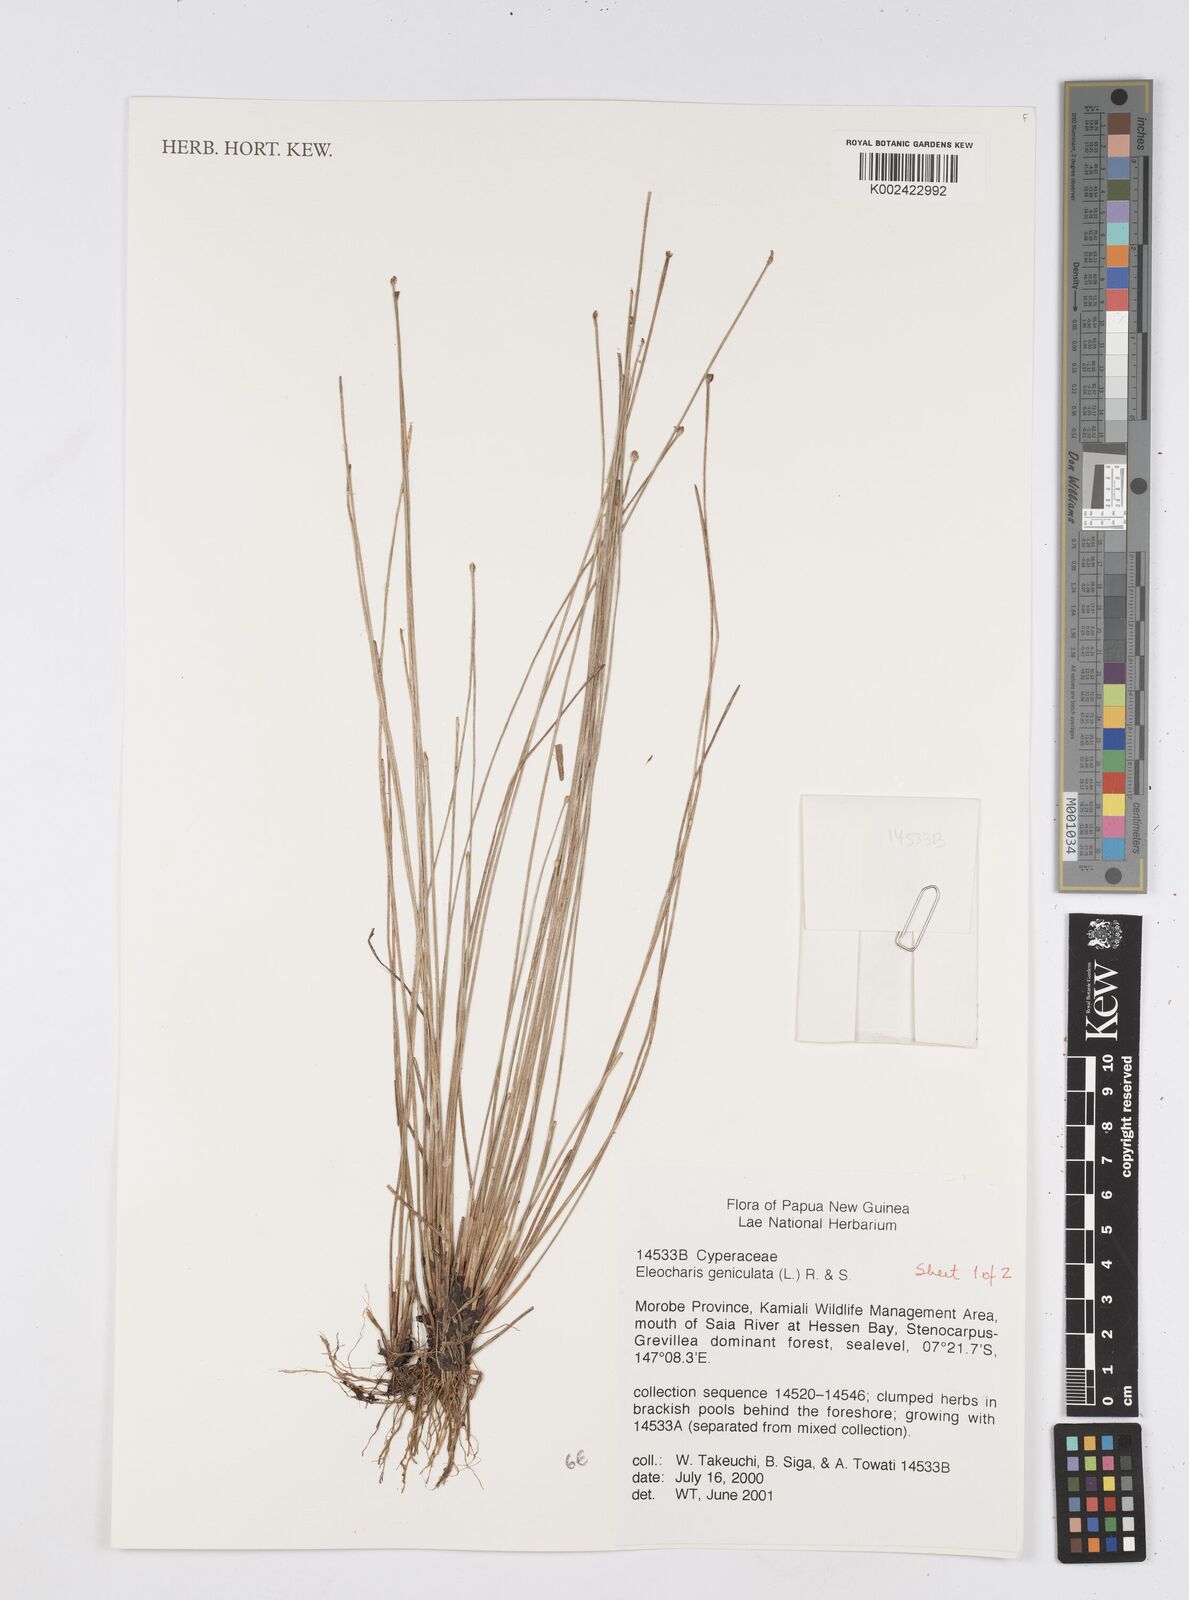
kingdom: Plantae
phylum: Tracheophyta
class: Liliopsida
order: Poales
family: Cyperaceae
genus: Eleocharis
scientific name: Eleocharis geniculata
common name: Canada spikesedge
